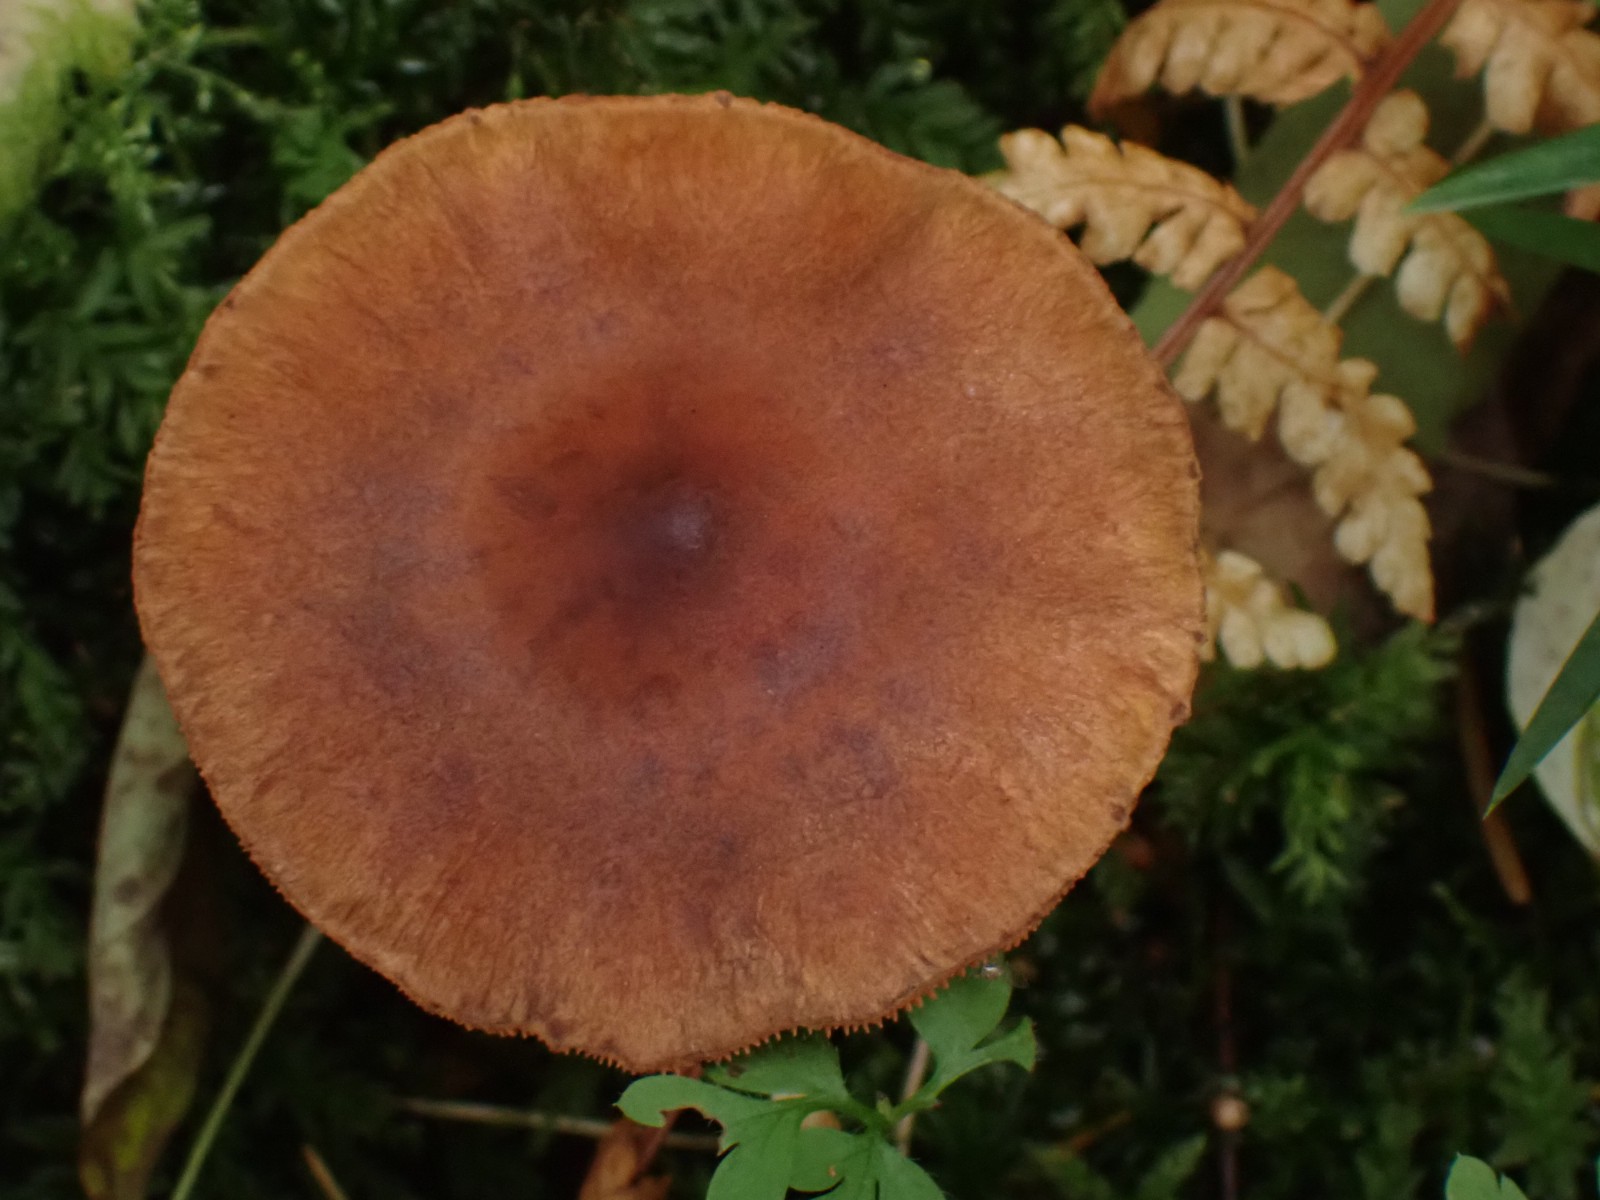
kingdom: Fungi
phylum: Basidiomycota
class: Agaricomycetes
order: Agaricales
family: Cortinariaceae
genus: Cortinarius
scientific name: Cortinarius
